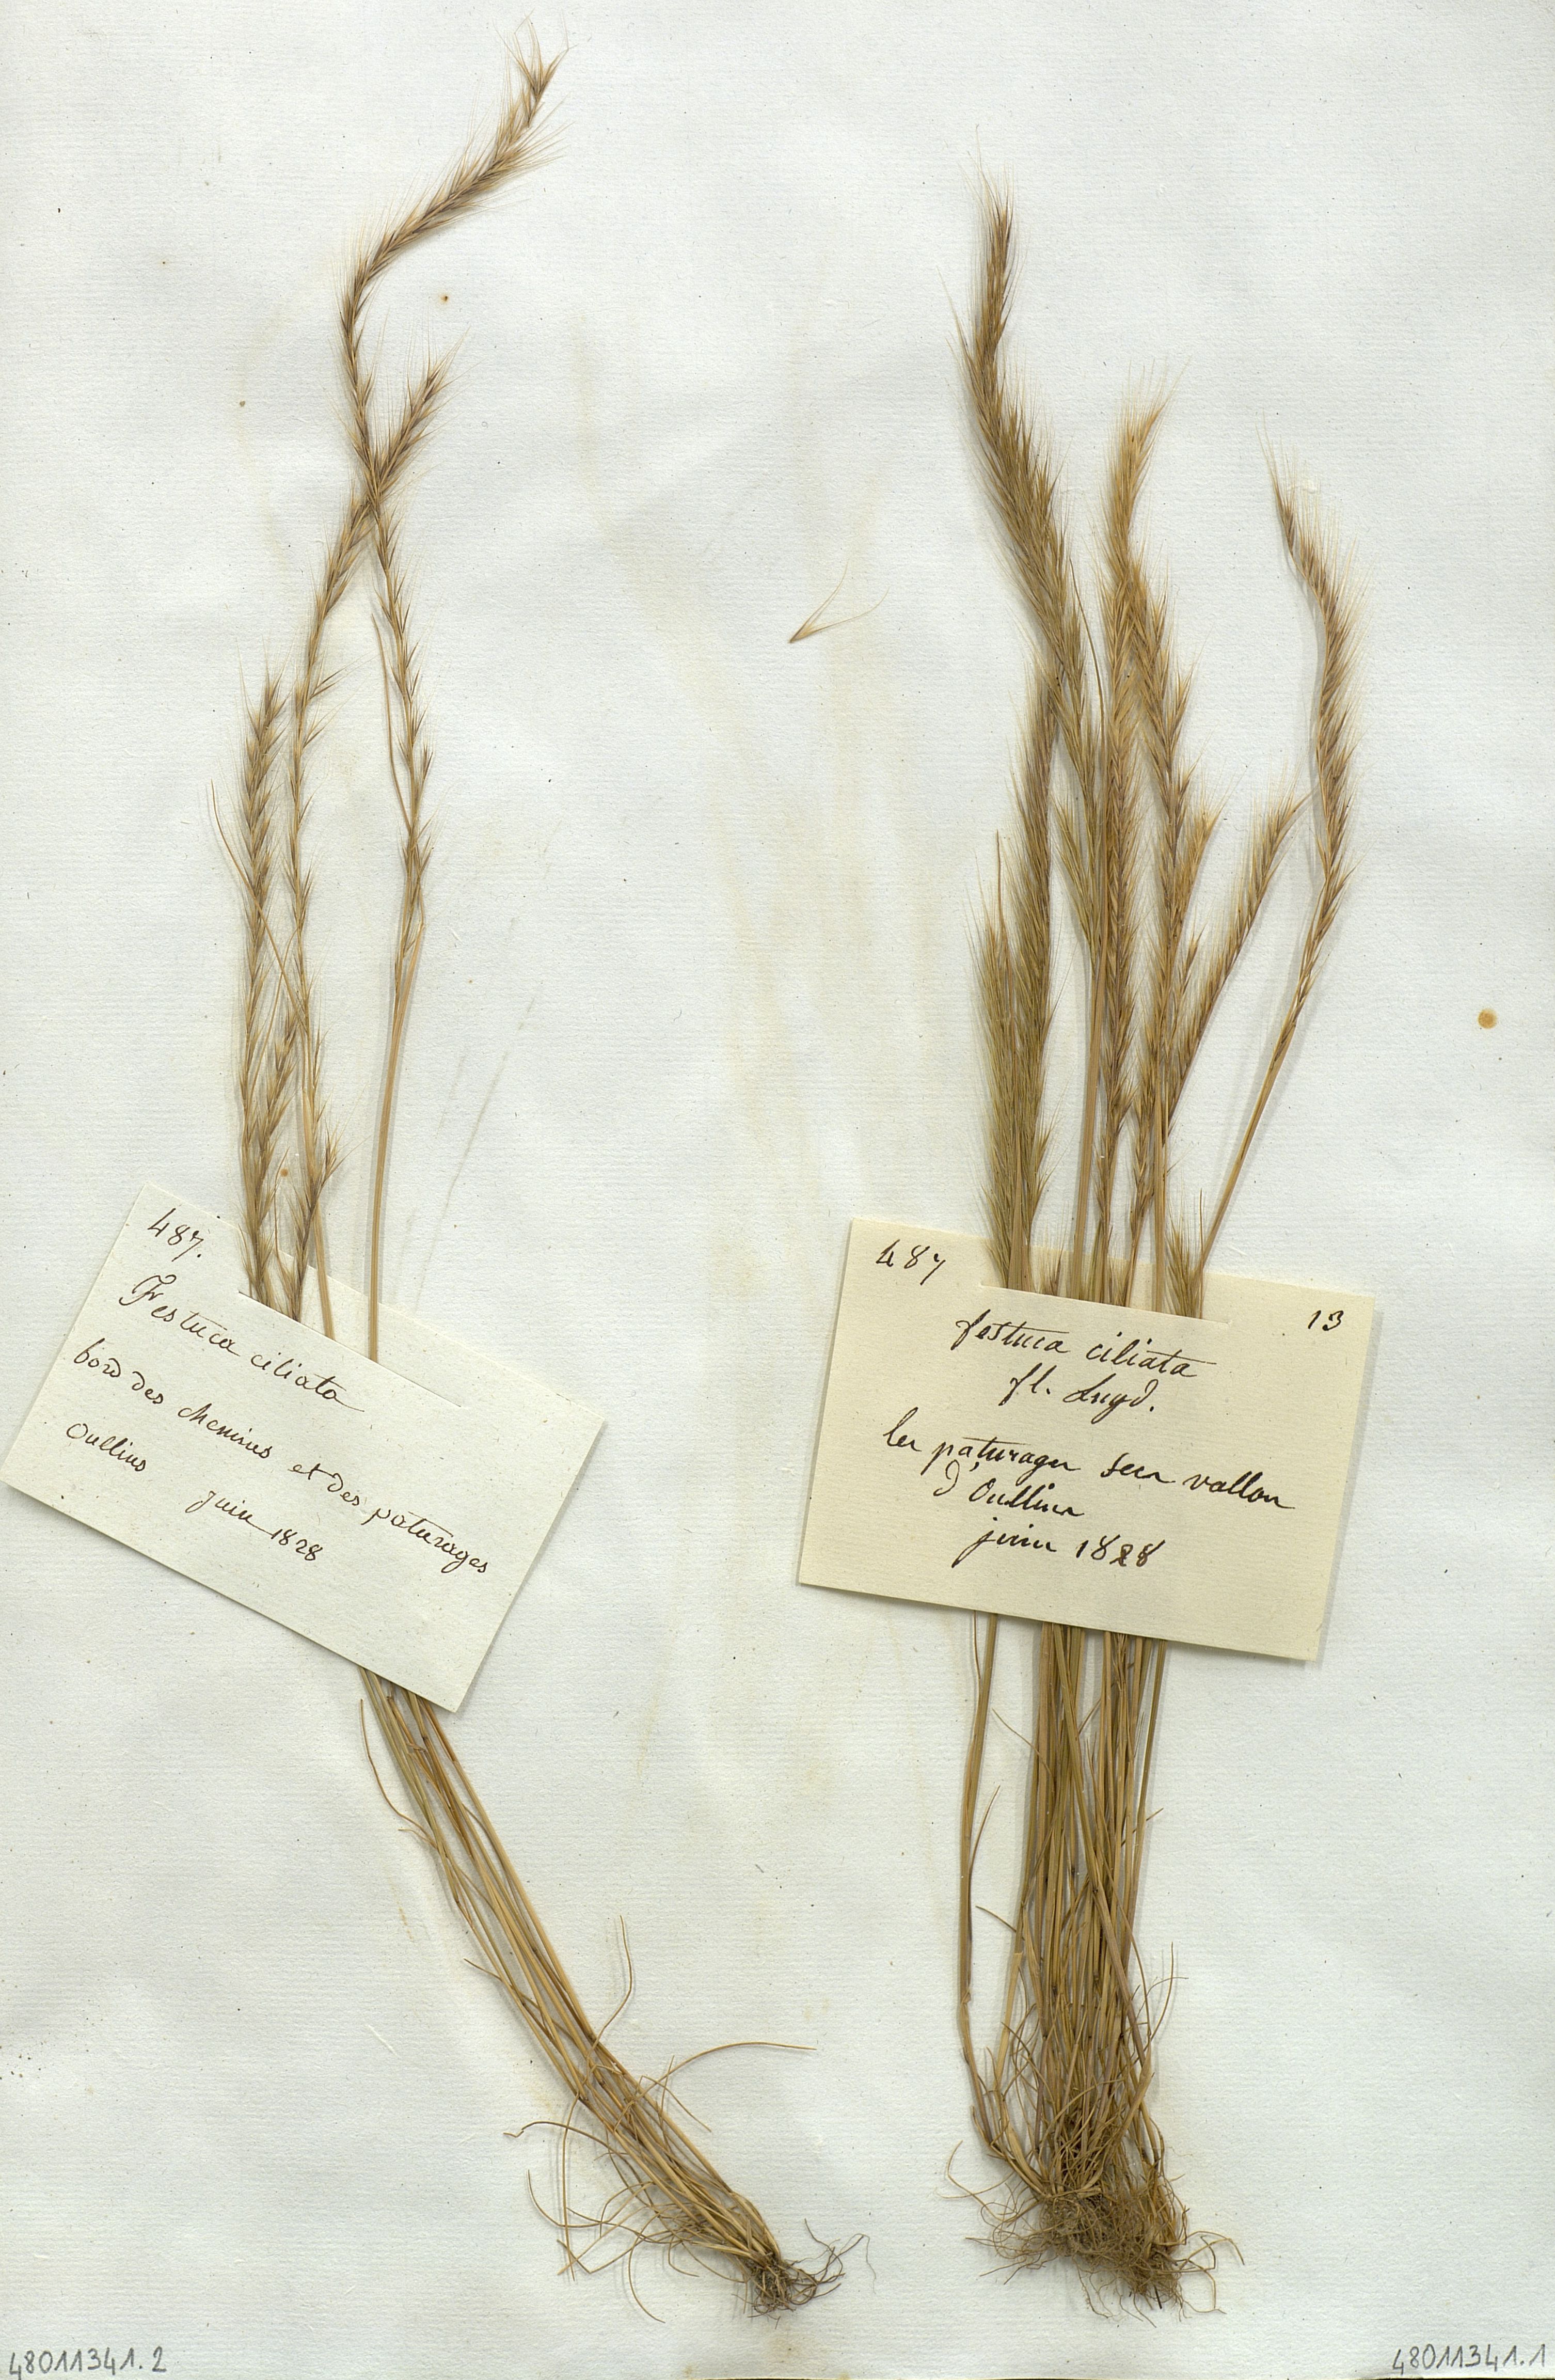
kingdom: Plantae
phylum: Tracheophyta
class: Liliopsida
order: Poales
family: Poaceae
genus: Festuca
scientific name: Festuca ciliata
